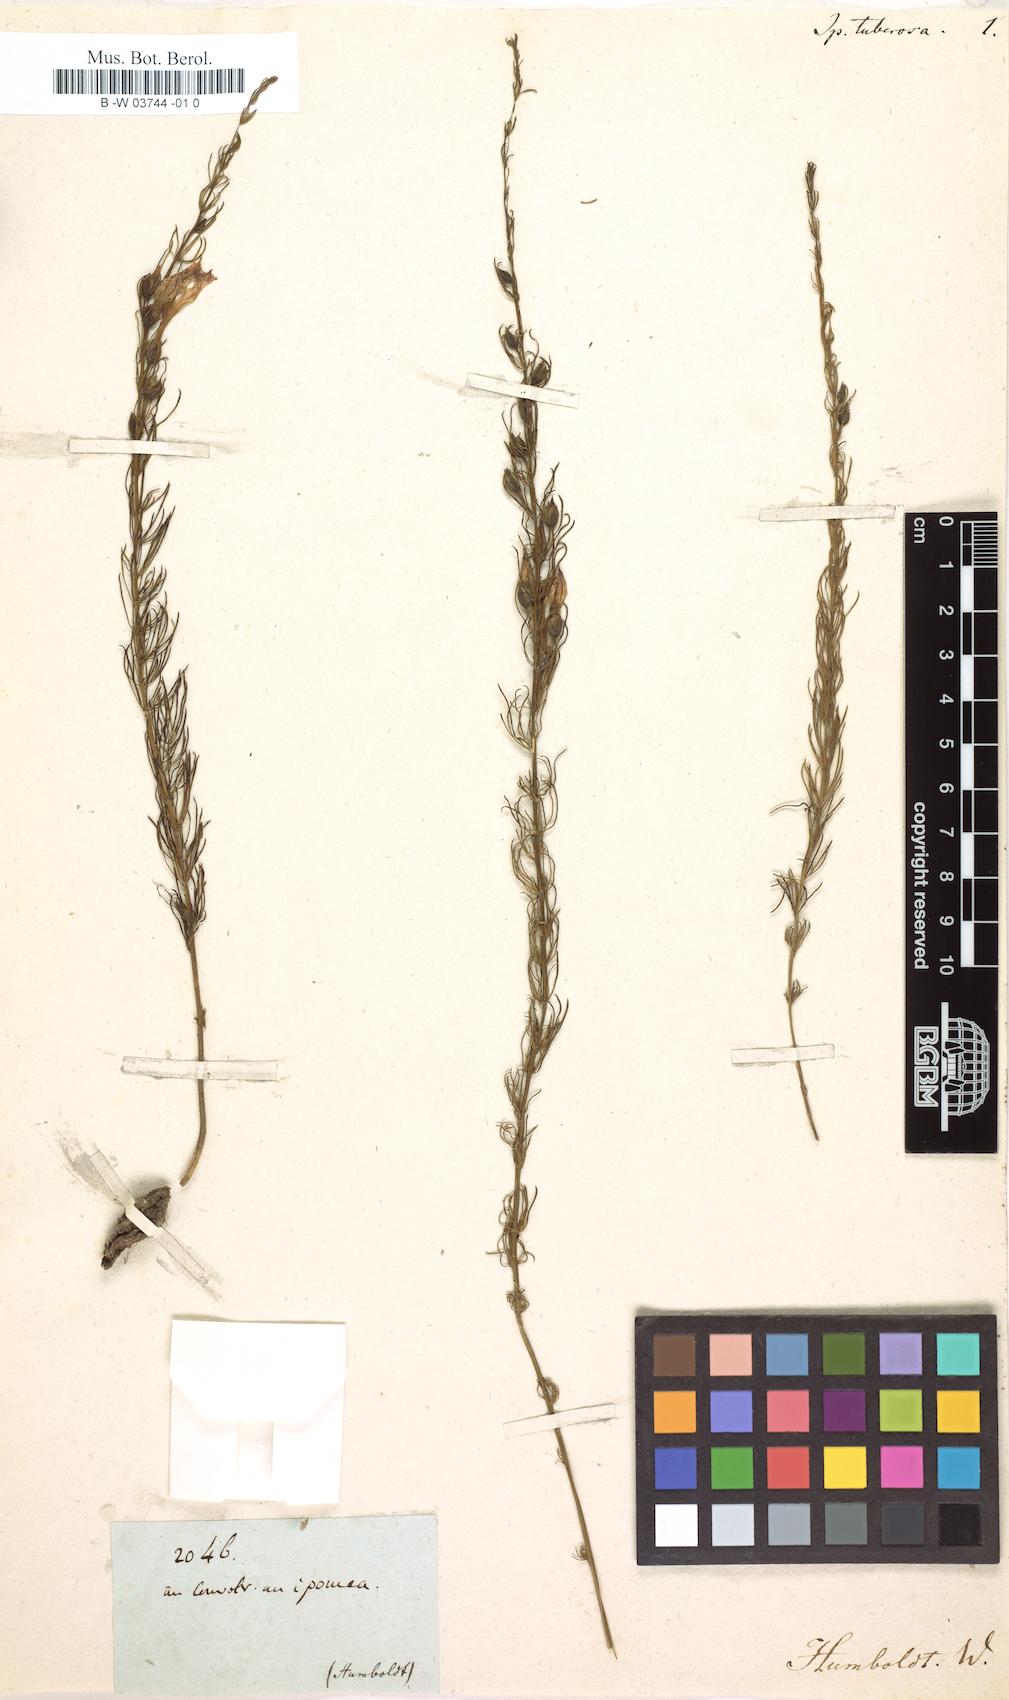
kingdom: Plantae
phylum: Tracheophyta
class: Magnoliopsida
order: Ericales
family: Polemoniaceae
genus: Ipomopsis
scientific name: Ipomopsis tuberosa
